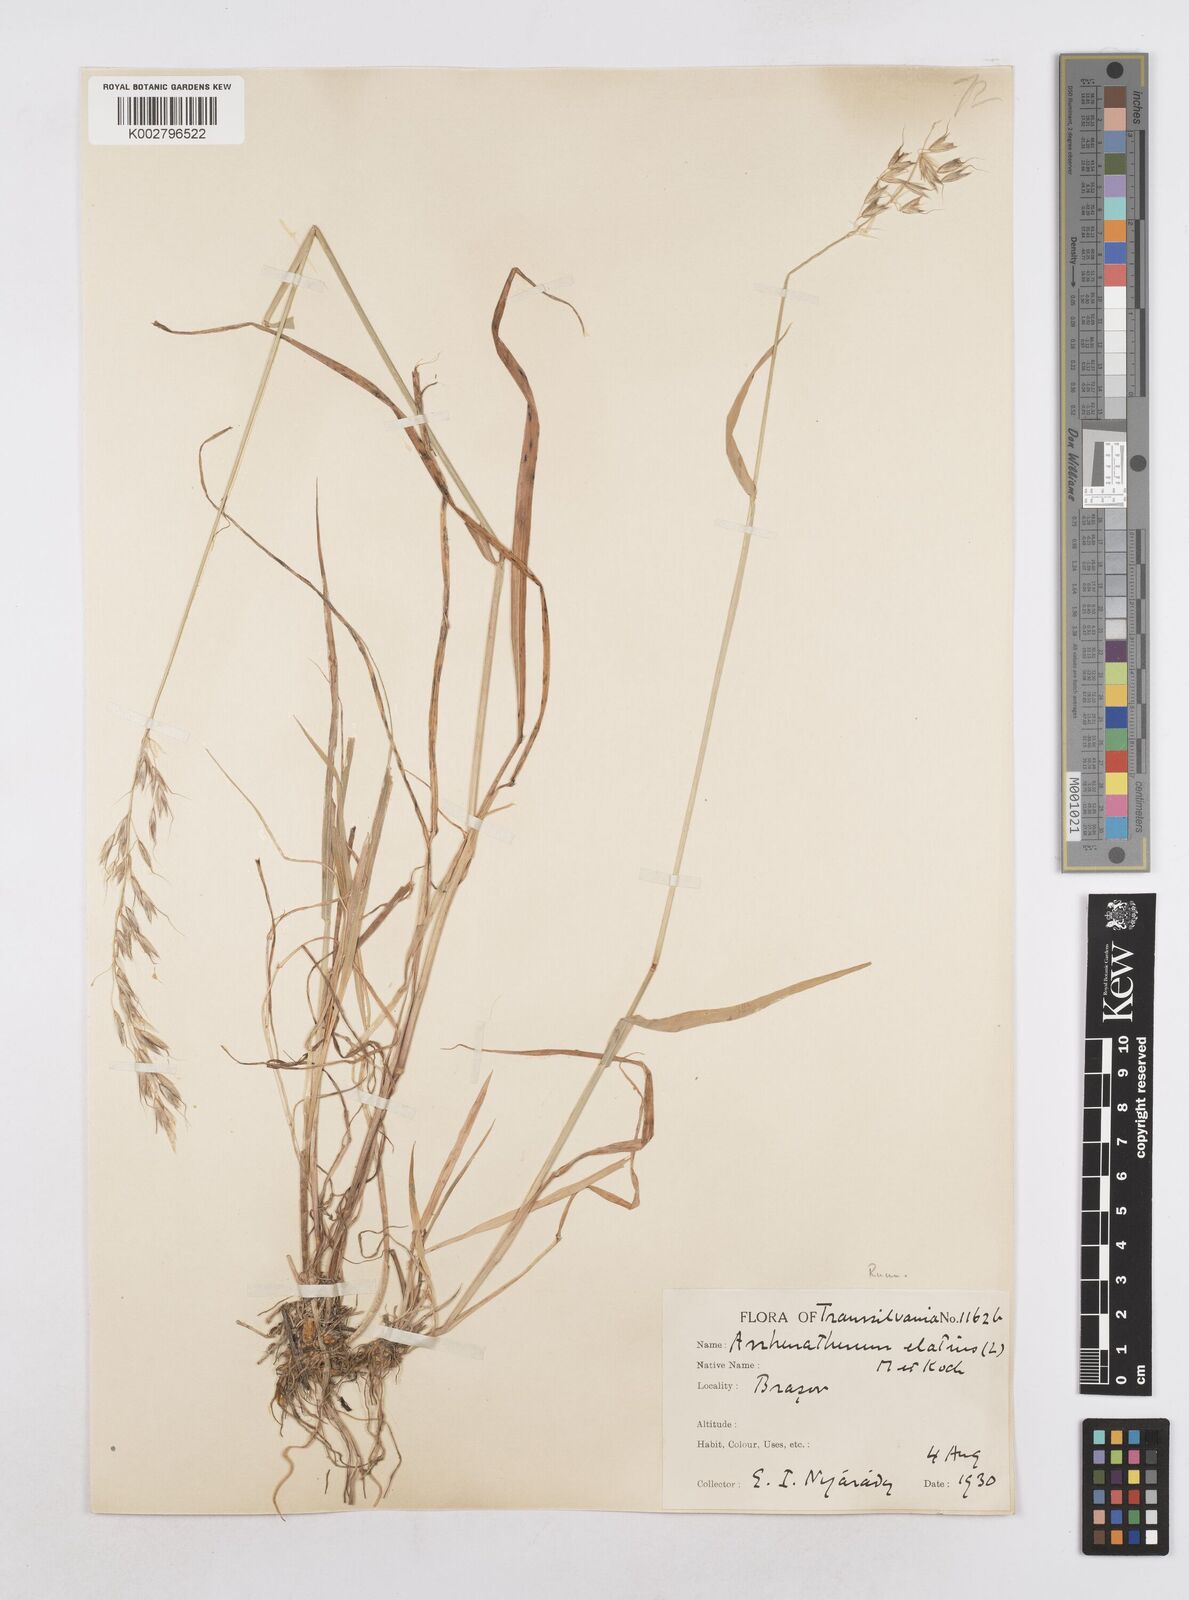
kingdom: Plantae
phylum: Tracheophyta
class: Liliopsida
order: Poales
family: Poaceae
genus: Arrhenatherum
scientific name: Arrhenatherum elatius
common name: Tall oatgrass
